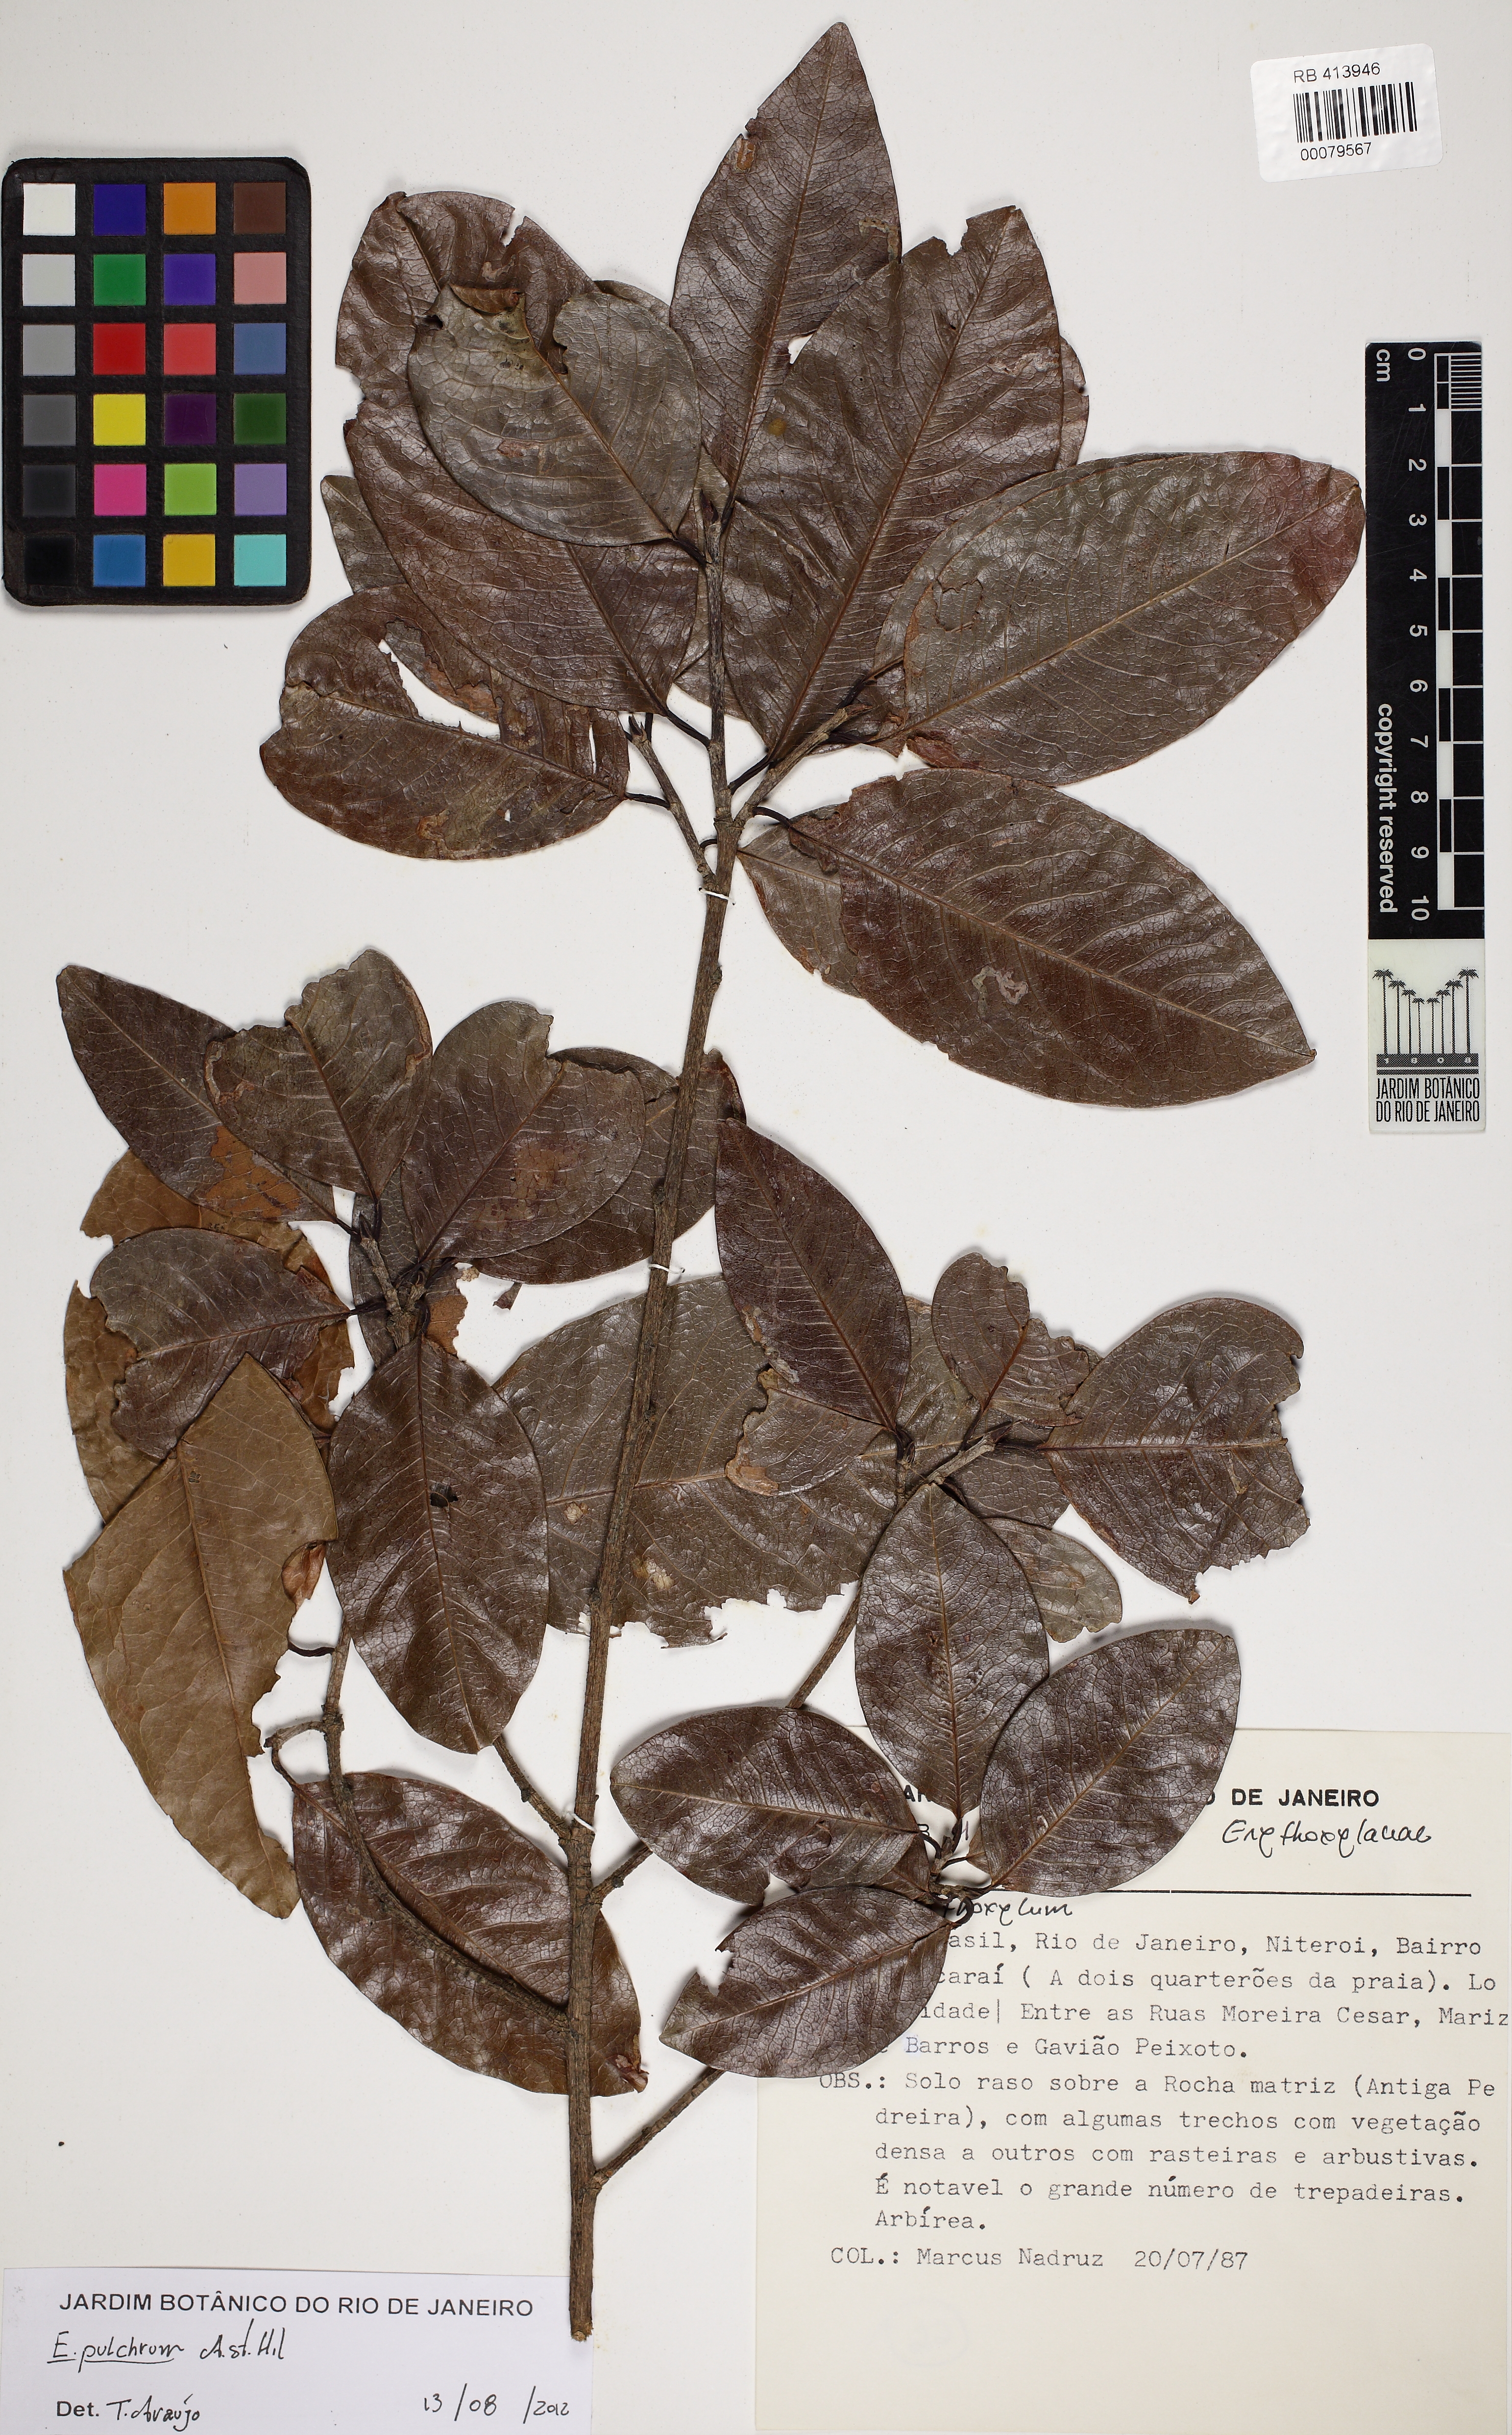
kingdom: Plantae
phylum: Tracheophyta
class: Magnoliopsida
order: Malpighiales
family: Erythroxylaceae
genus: Erythroxylum
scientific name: Erythroxylum pulchrum
